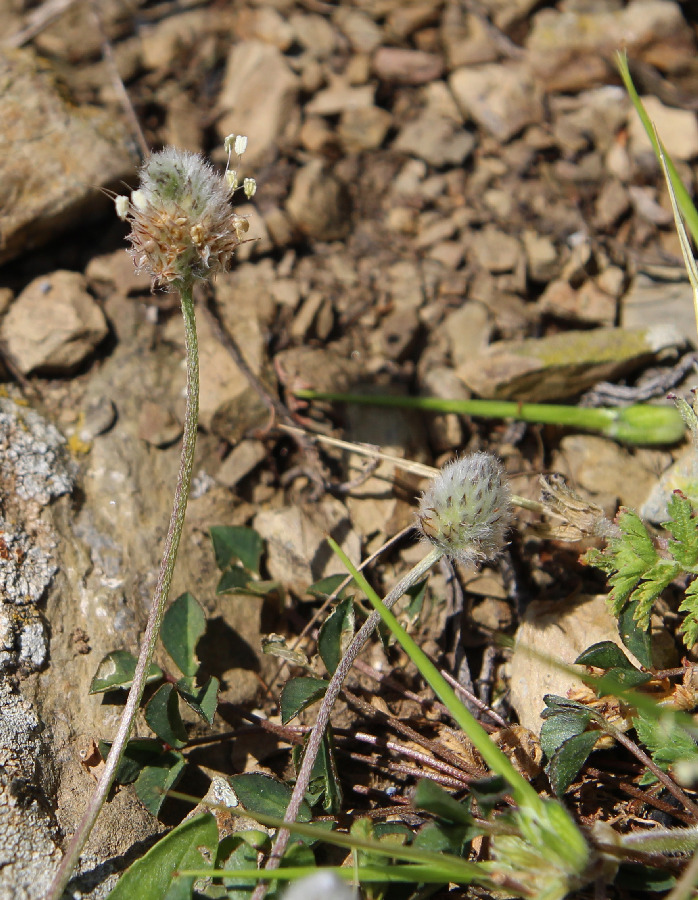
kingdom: Plantae
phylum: Tracheophyta
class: Magnoliopsida
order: Lamiales
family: Plantaginaceae
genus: Plantago
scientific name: Plantago lagopus
